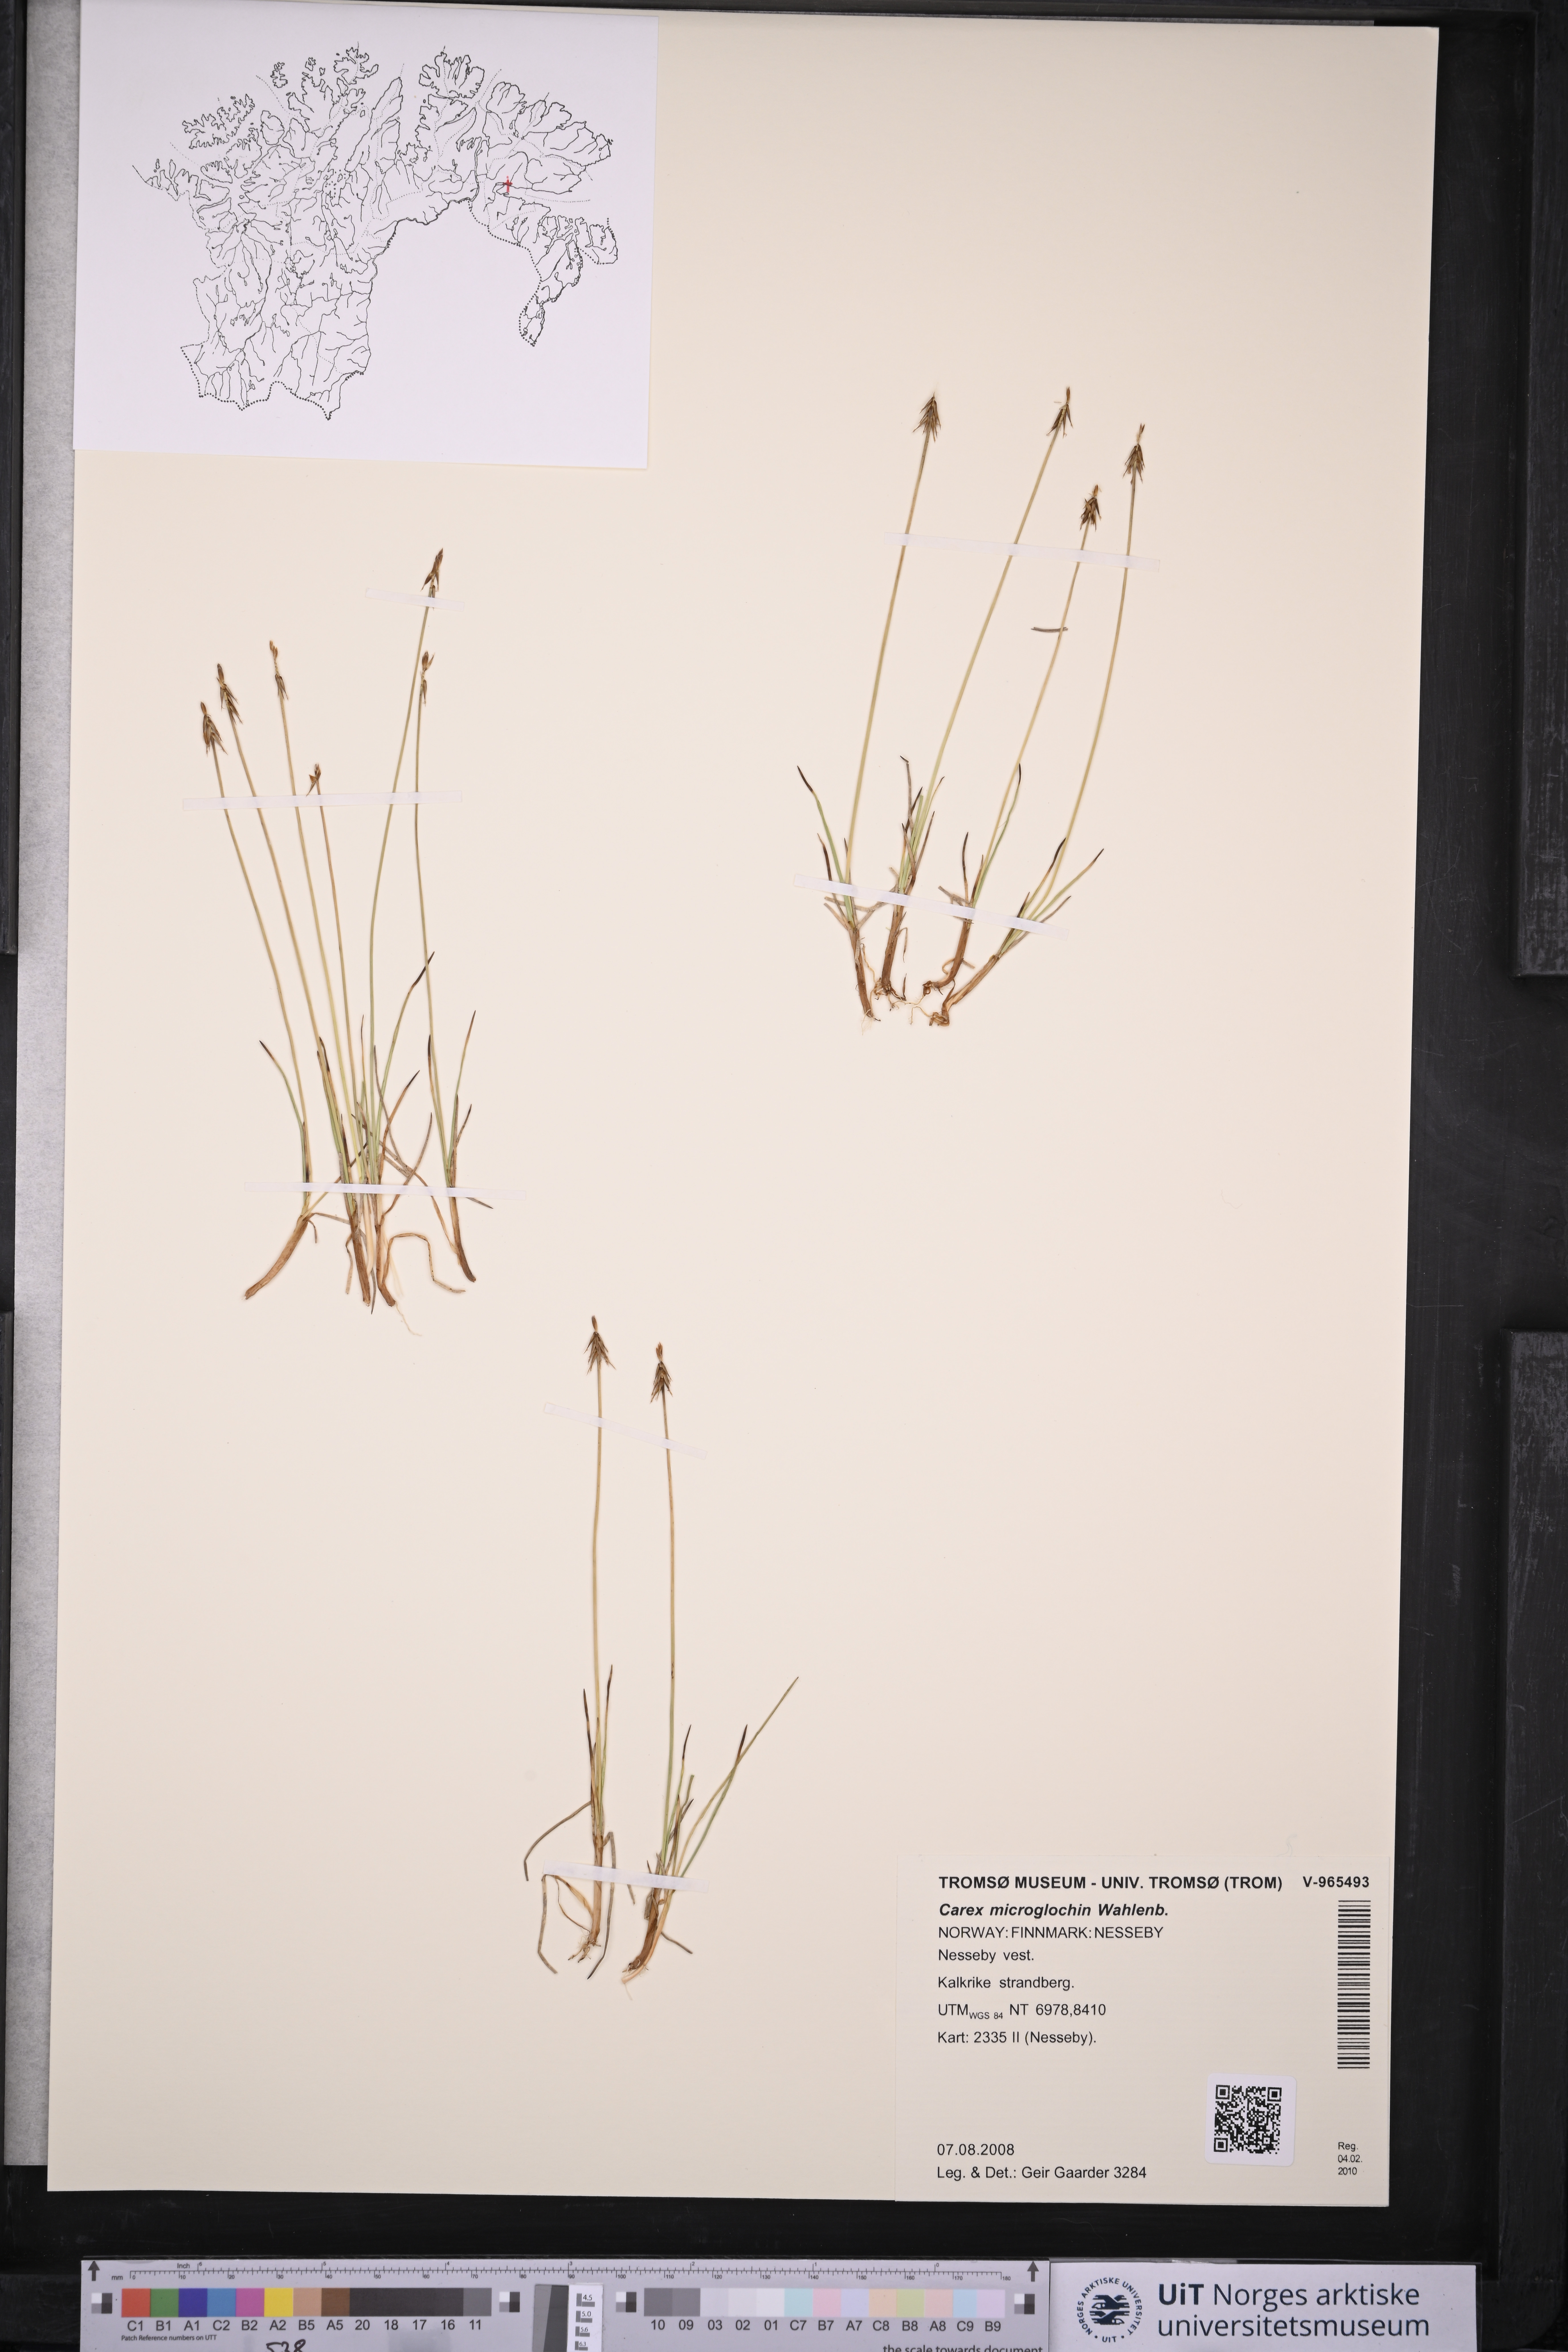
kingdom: Plantae
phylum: Tracheophyta
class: Liliopsida
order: Poales
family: Cyperaceae
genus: Carex
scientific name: Carex microglochin
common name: Bristle sedge
